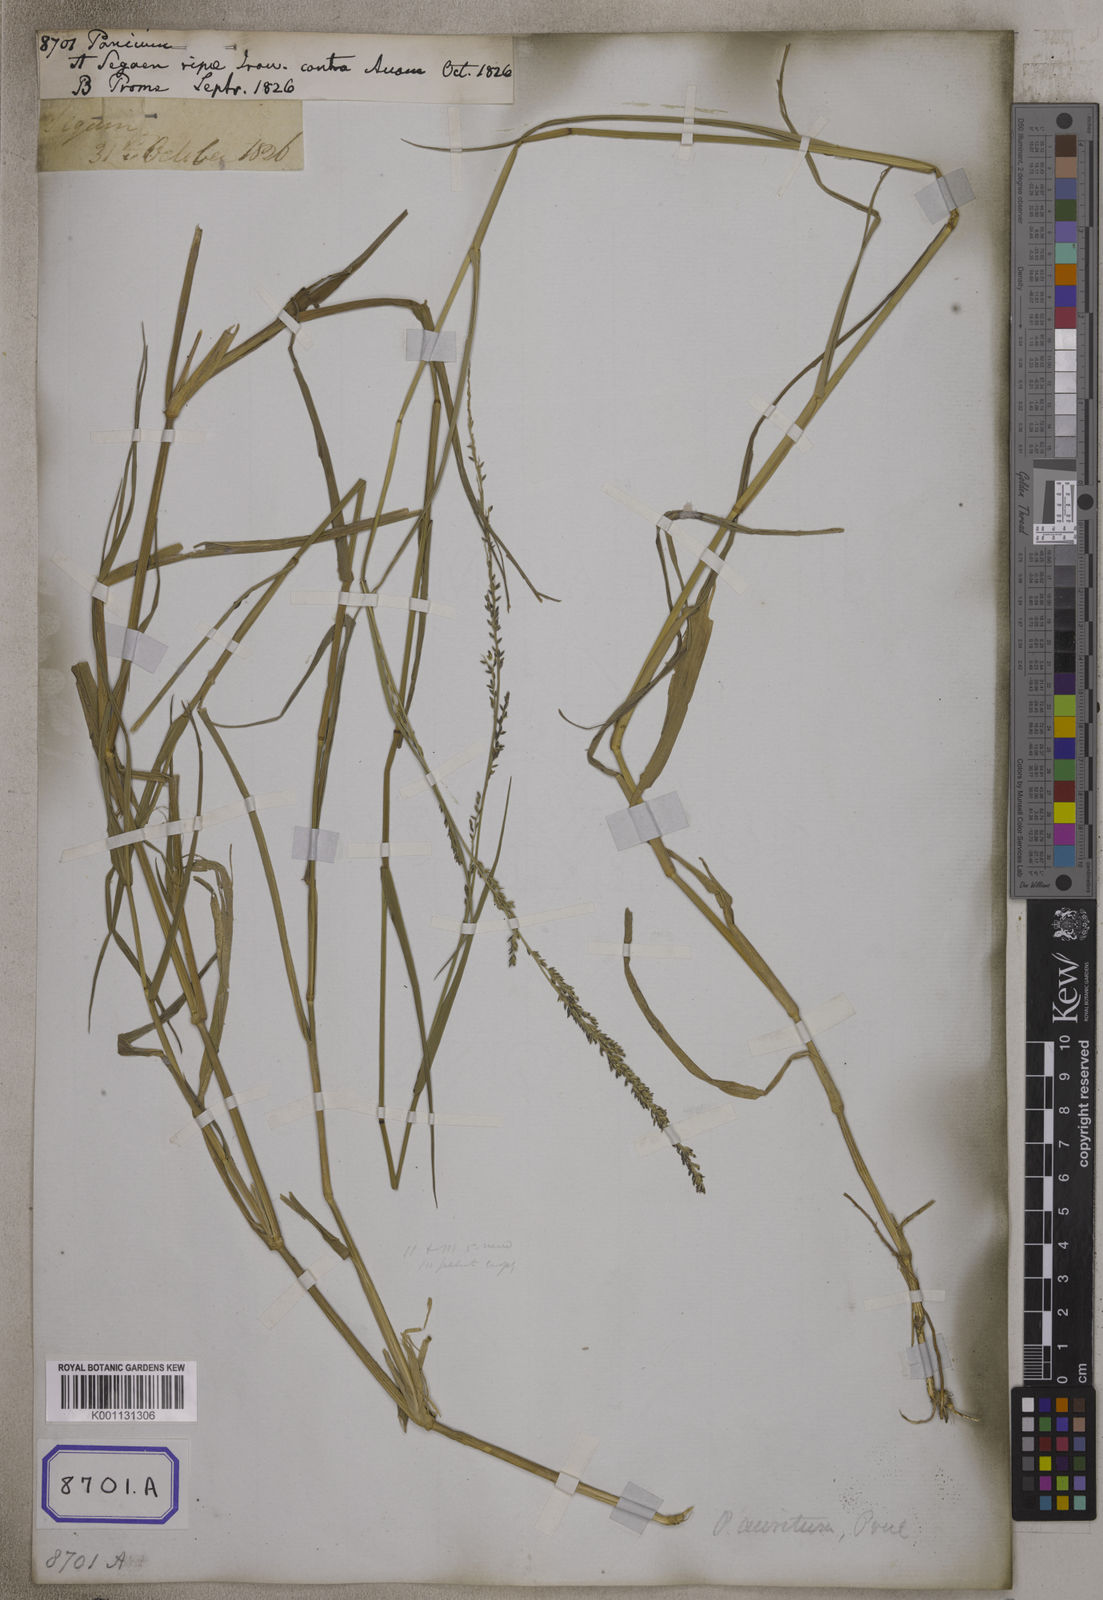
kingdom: Plantae
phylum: Tracheophyta
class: Liliopsida
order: Poales
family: Poaceae
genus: Panicum
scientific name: Panicum
